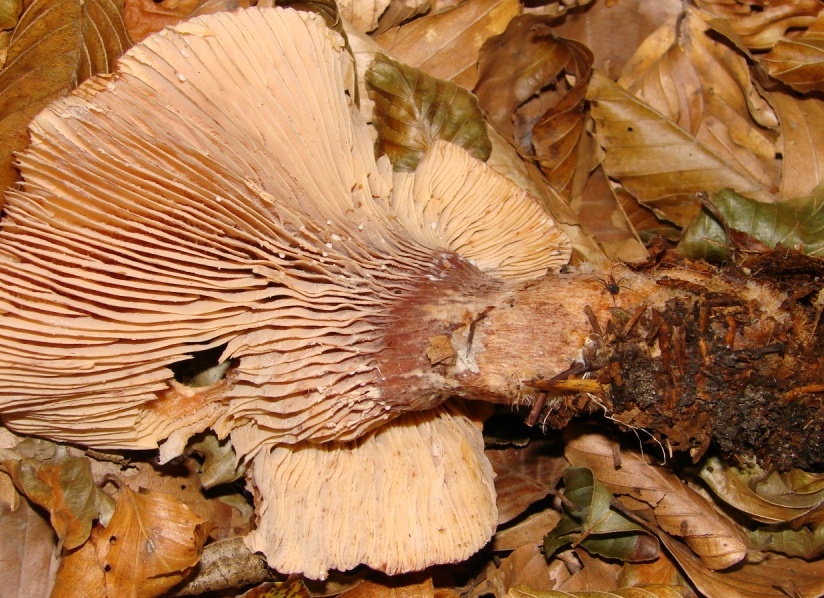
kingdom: Fungi
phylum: Basidiomycota
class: Agaricomycetes
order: Russulales
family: Russulaceae
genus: Lactarius
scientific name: Lactarius rubrocinctus
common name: halsbånd-mælkehat
